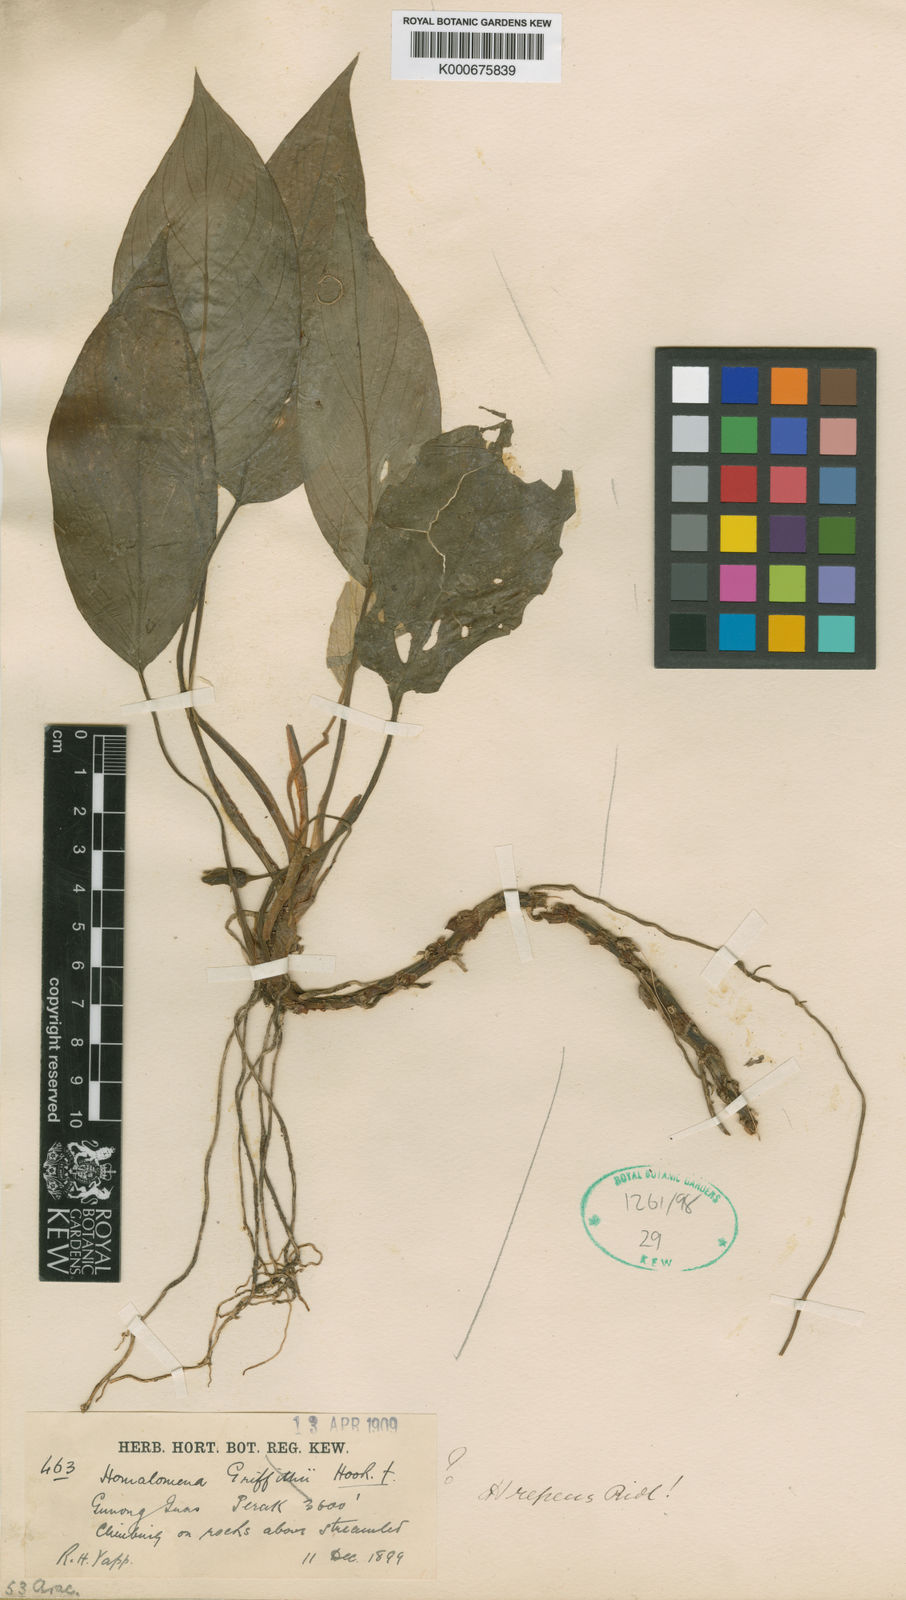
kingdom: Plantae
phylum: Tracheophyta
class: Liliopsida
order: Alismatales
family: Araceae
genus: Homalomena
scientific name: Homalomena humilis
